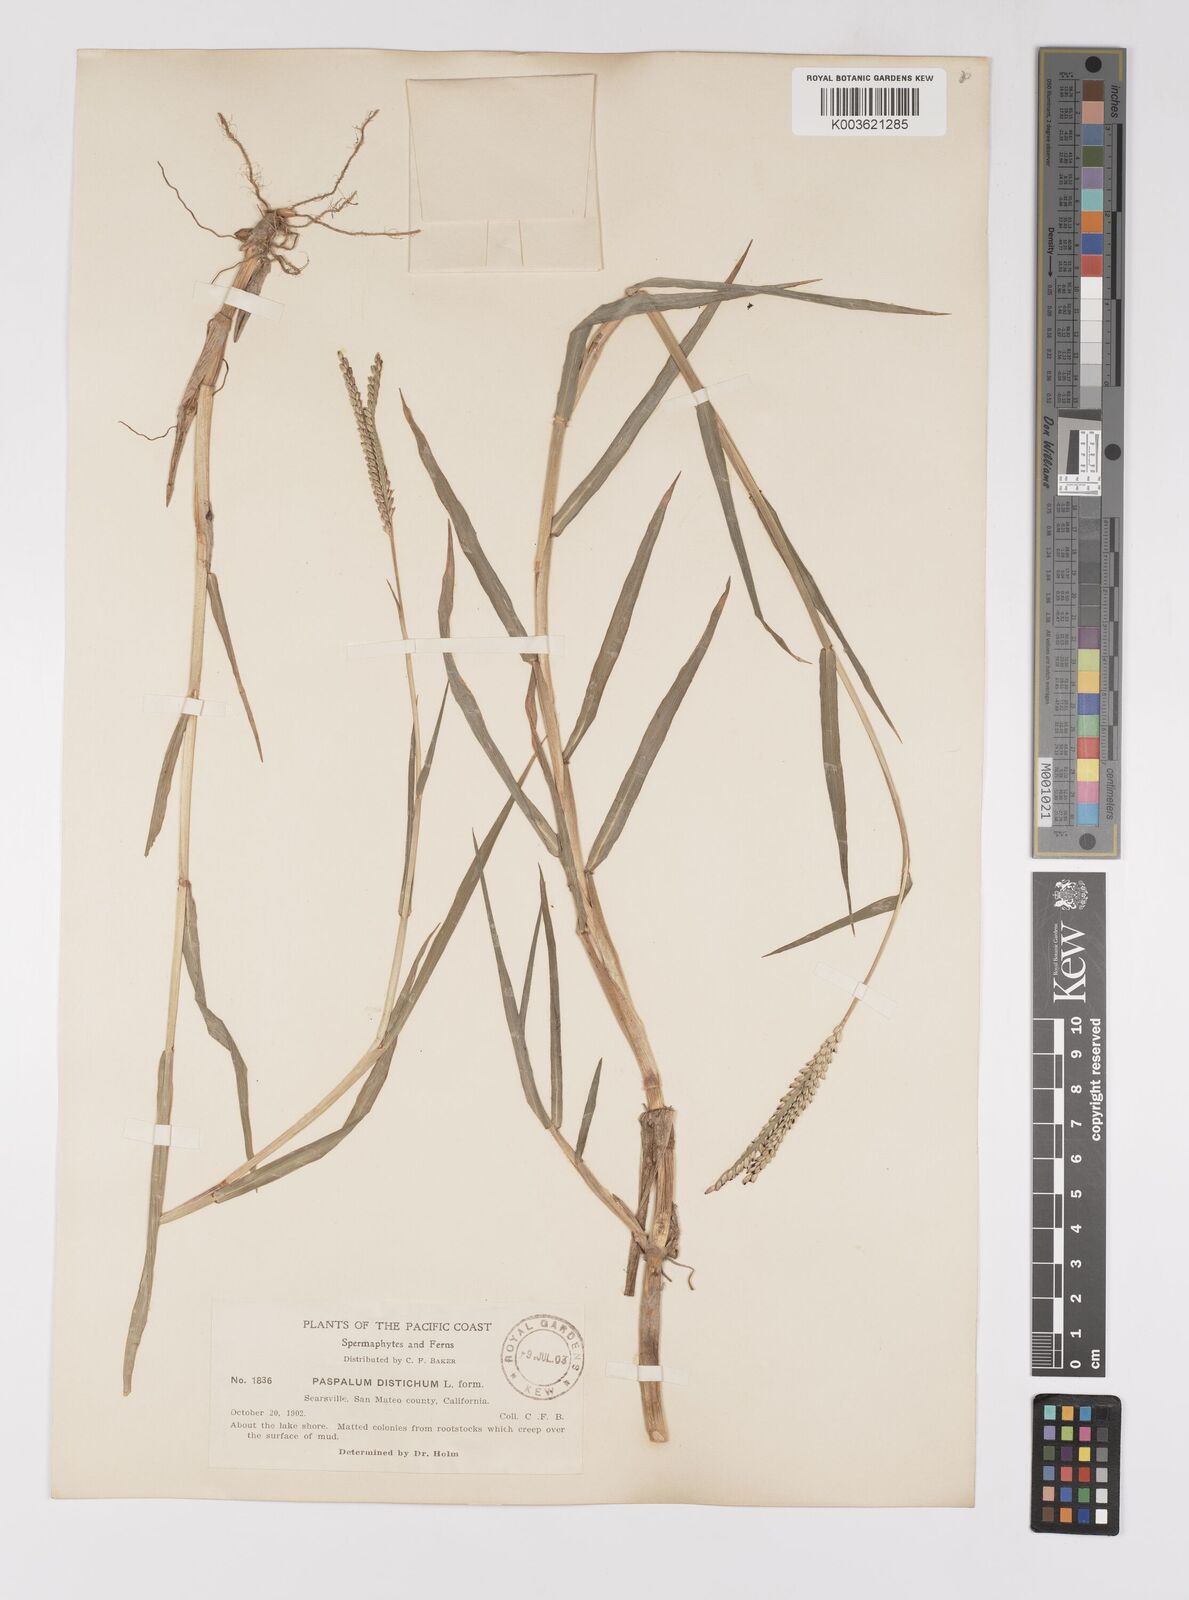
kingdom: Plantae
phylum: Tracheophyta
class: Liliopsida
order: Poales
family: Poaceae
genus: Paspalum
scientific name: Paspalum distichum
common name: Knotgrass
